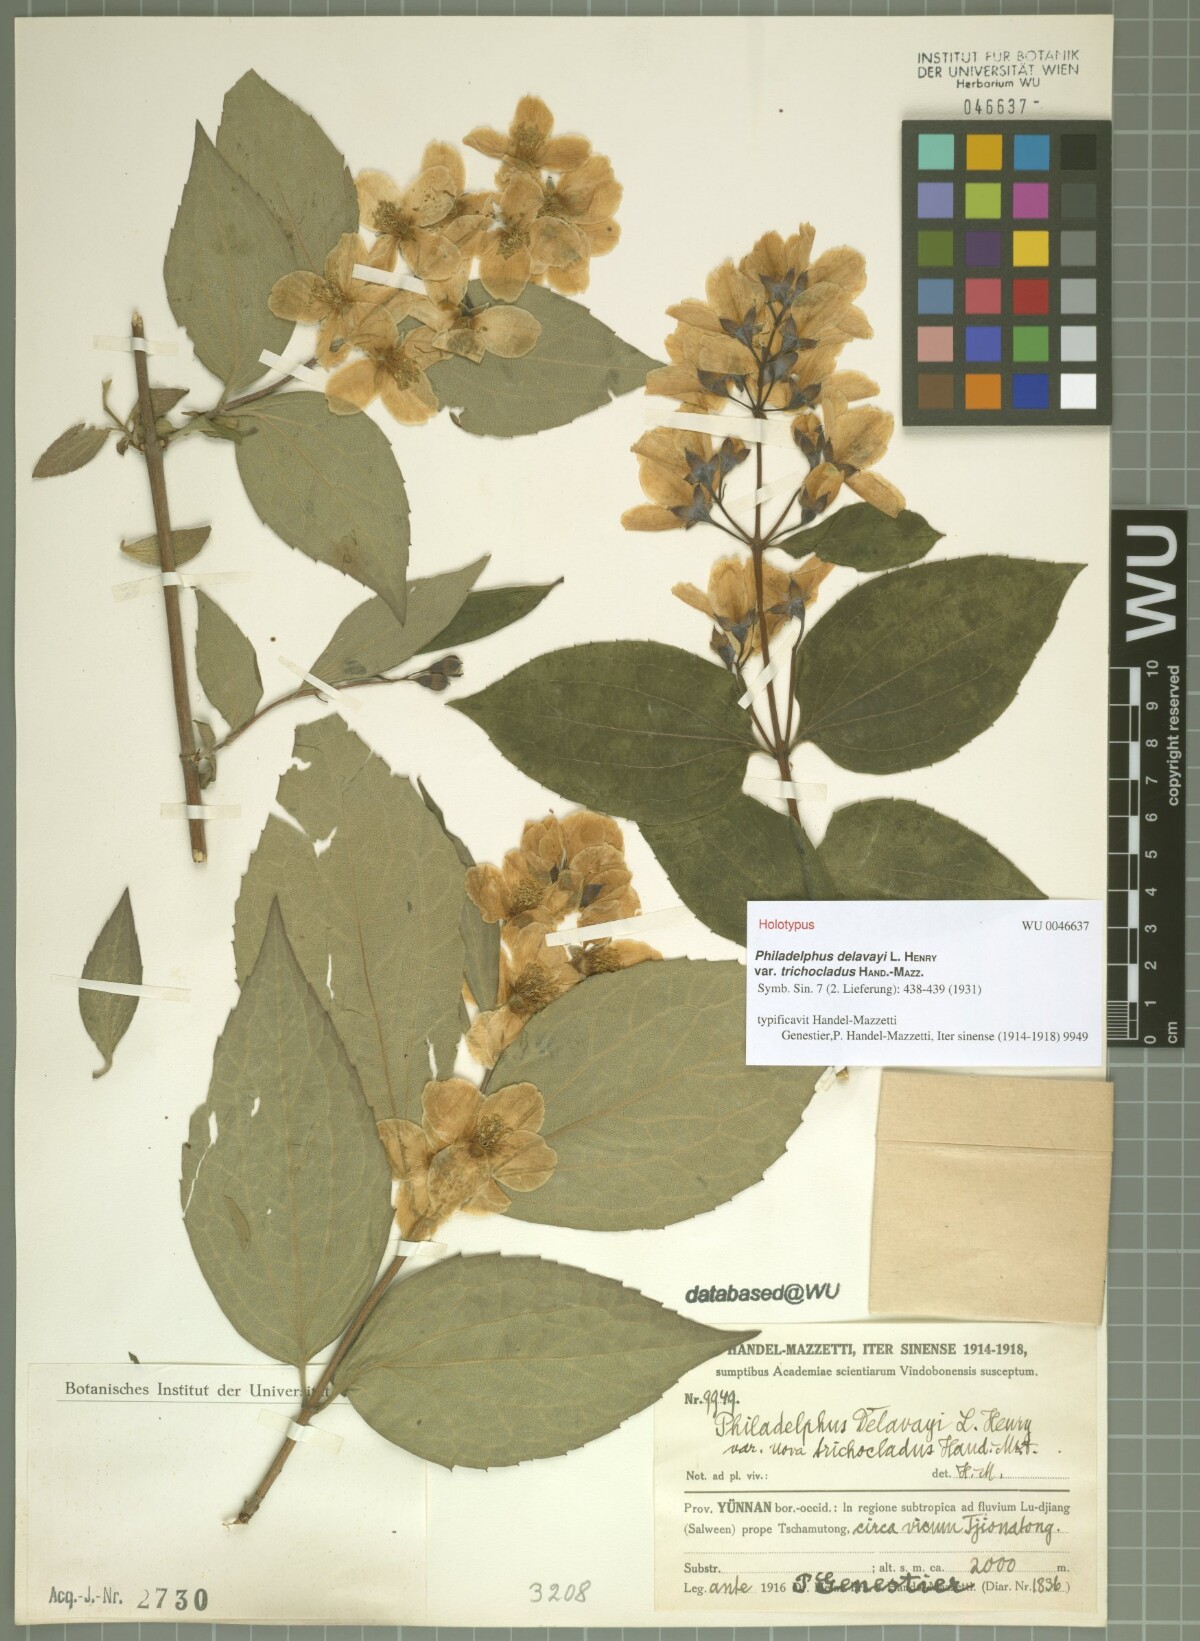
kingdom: Plantae
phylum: Tracheophyta
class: Magnoliopsida
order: Cornales
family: Hydrangeaceae
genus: Philadelphus
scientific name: Philadelphus delavayi
